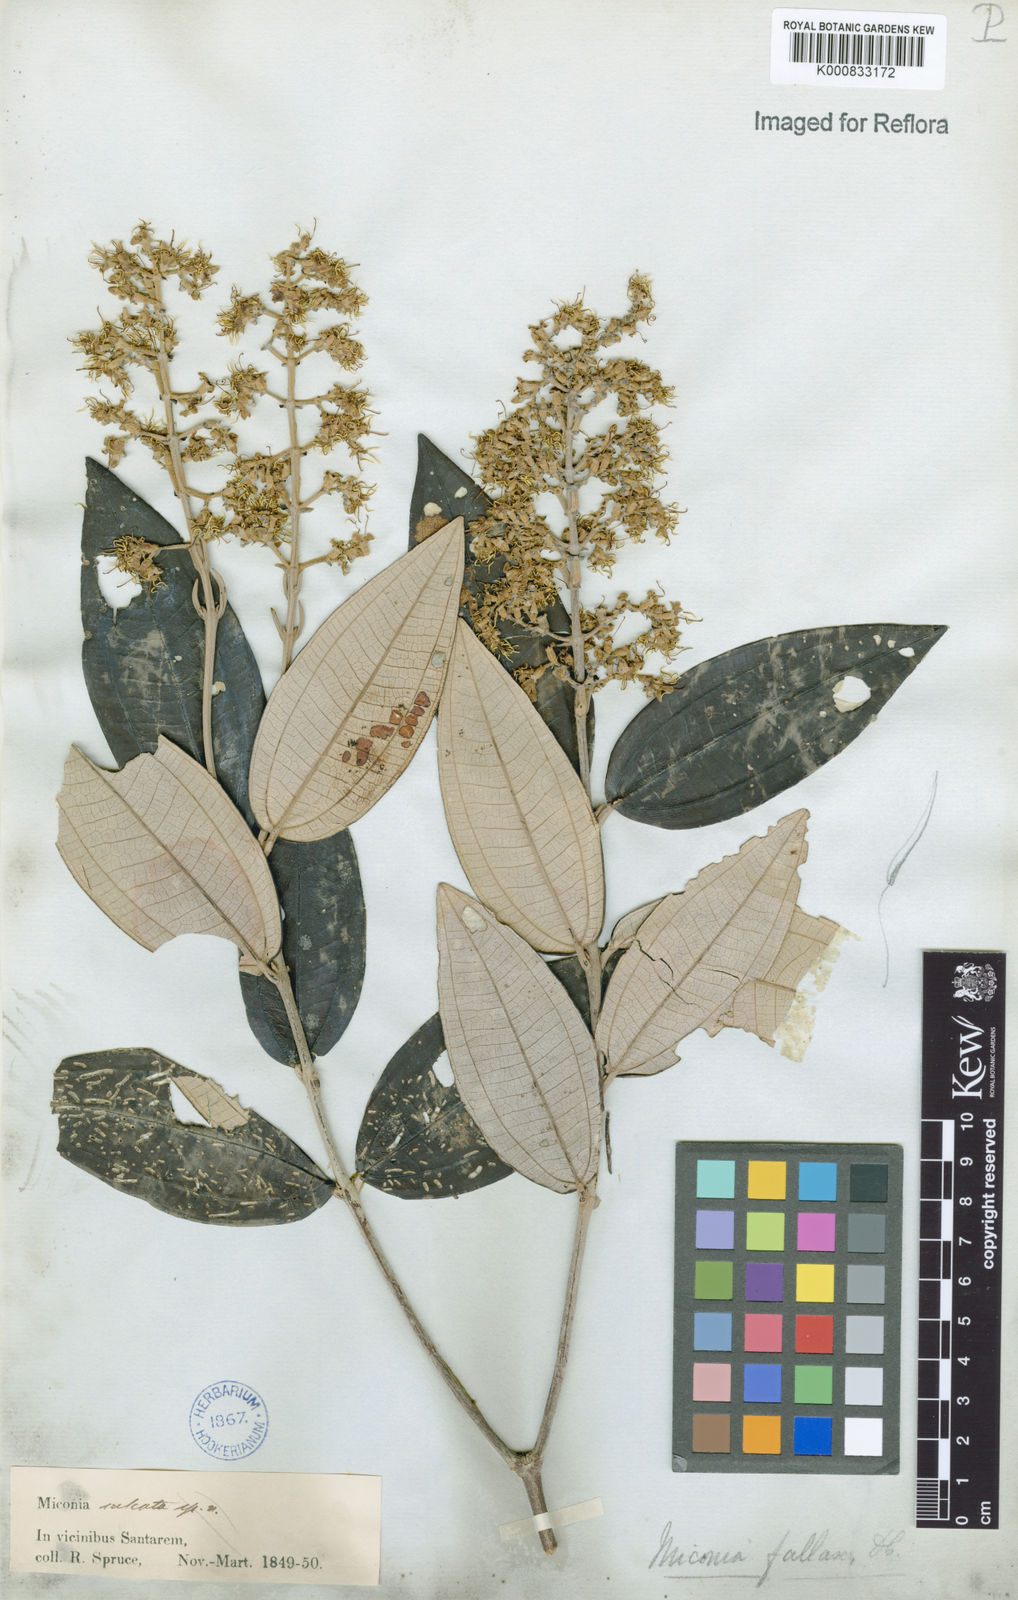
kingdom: Plantae
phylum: Tracheophyta
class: Magnoliopsida
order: Myrtales
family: Melastomataceae
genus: Miconia
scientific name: Miconia fallax
